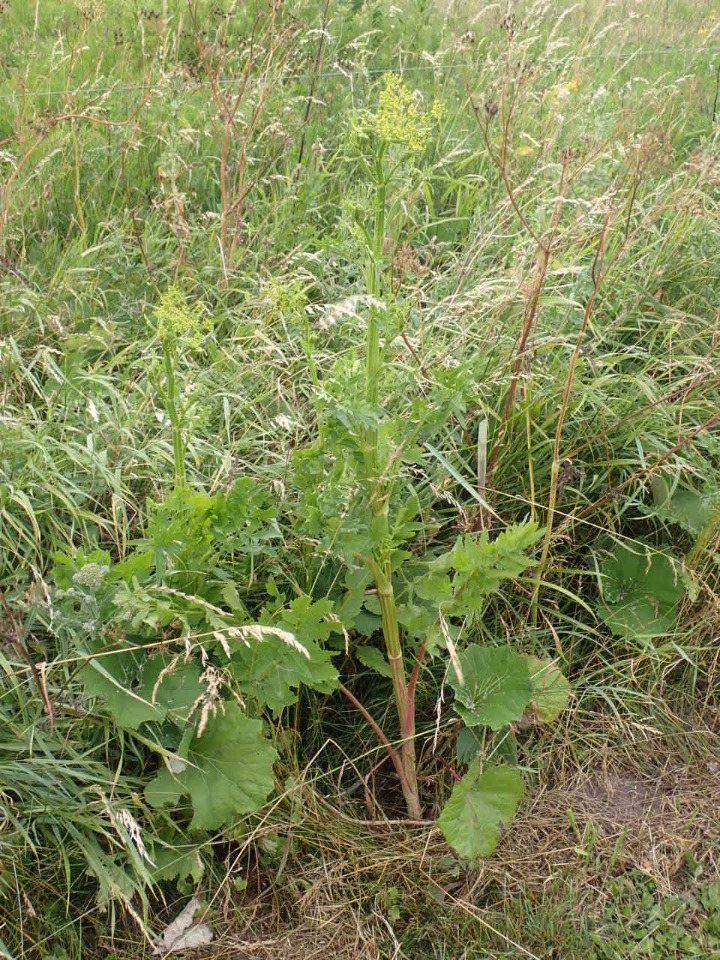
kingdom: Plantae
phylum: Tracheophyta
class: Magnoliopsida
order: Apiales
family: Apiaceae
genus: Pastinaca
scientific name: Pastinaca sativa
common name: Pastinak
